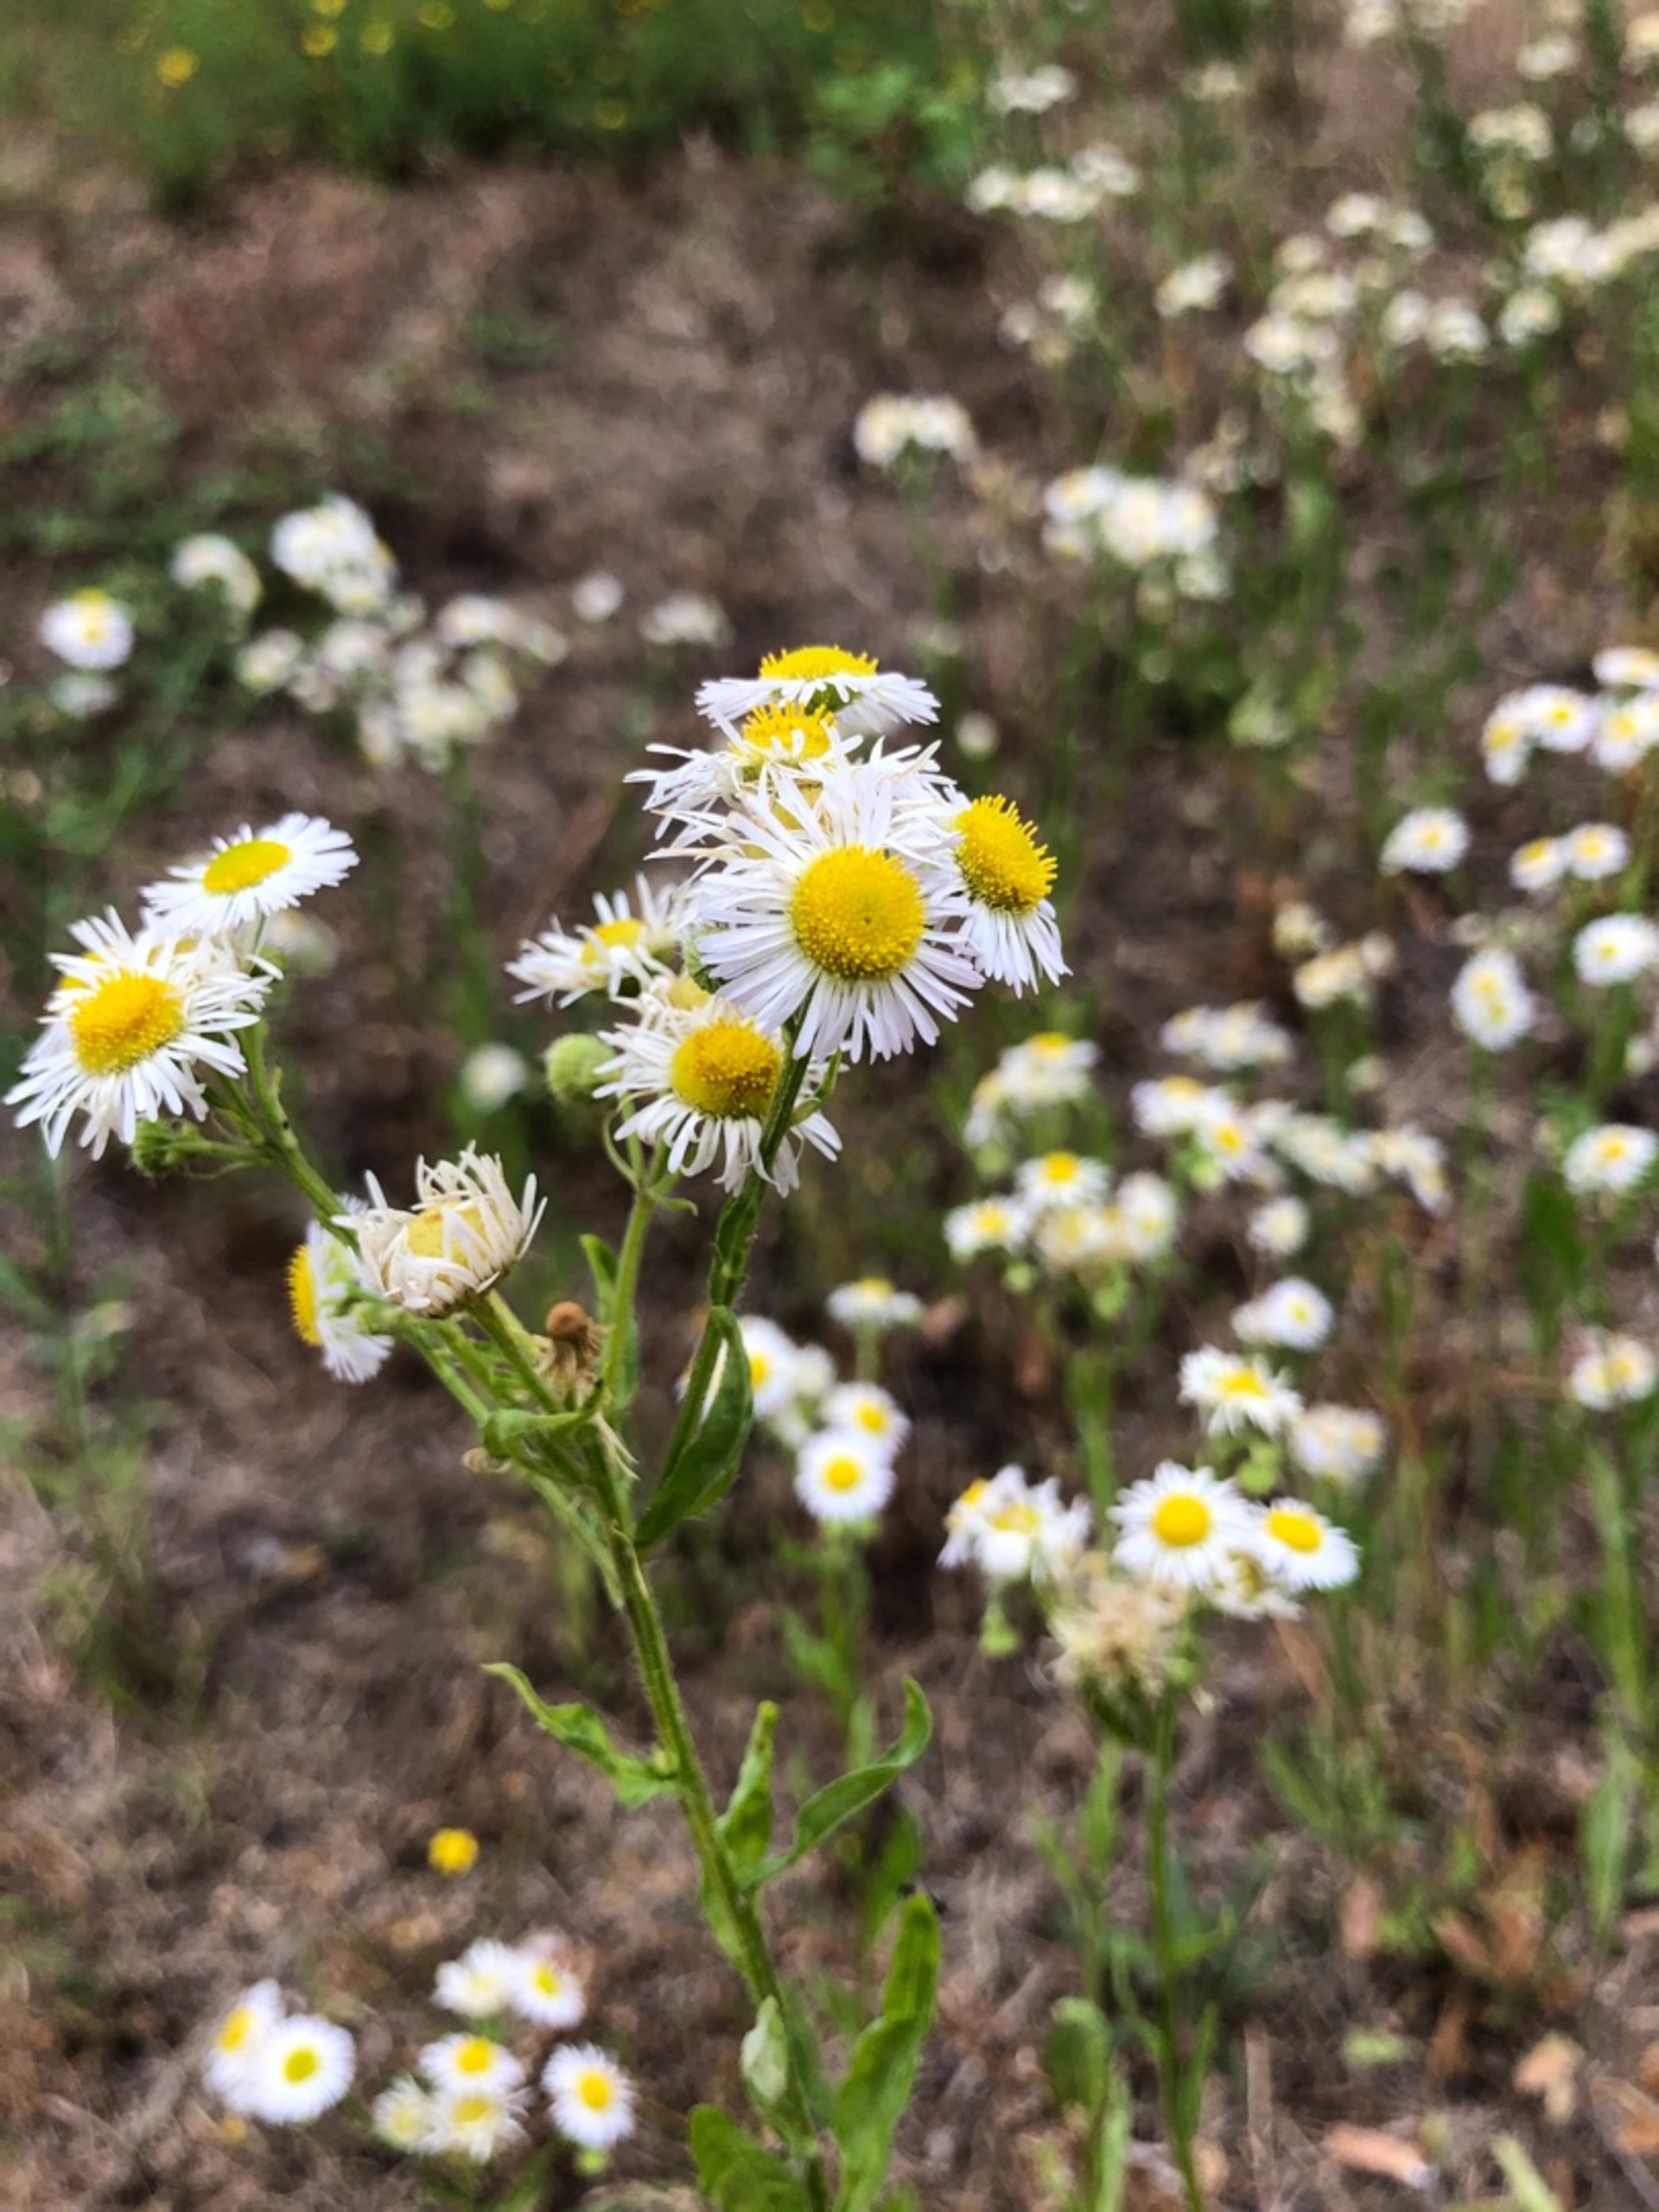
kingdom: Plantae
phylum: Tracheophyta
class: Magnoliopsida
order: Asterales
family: Asteraceae
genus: Erigeron
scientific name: Erigeron annuus
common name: Smalstråle
